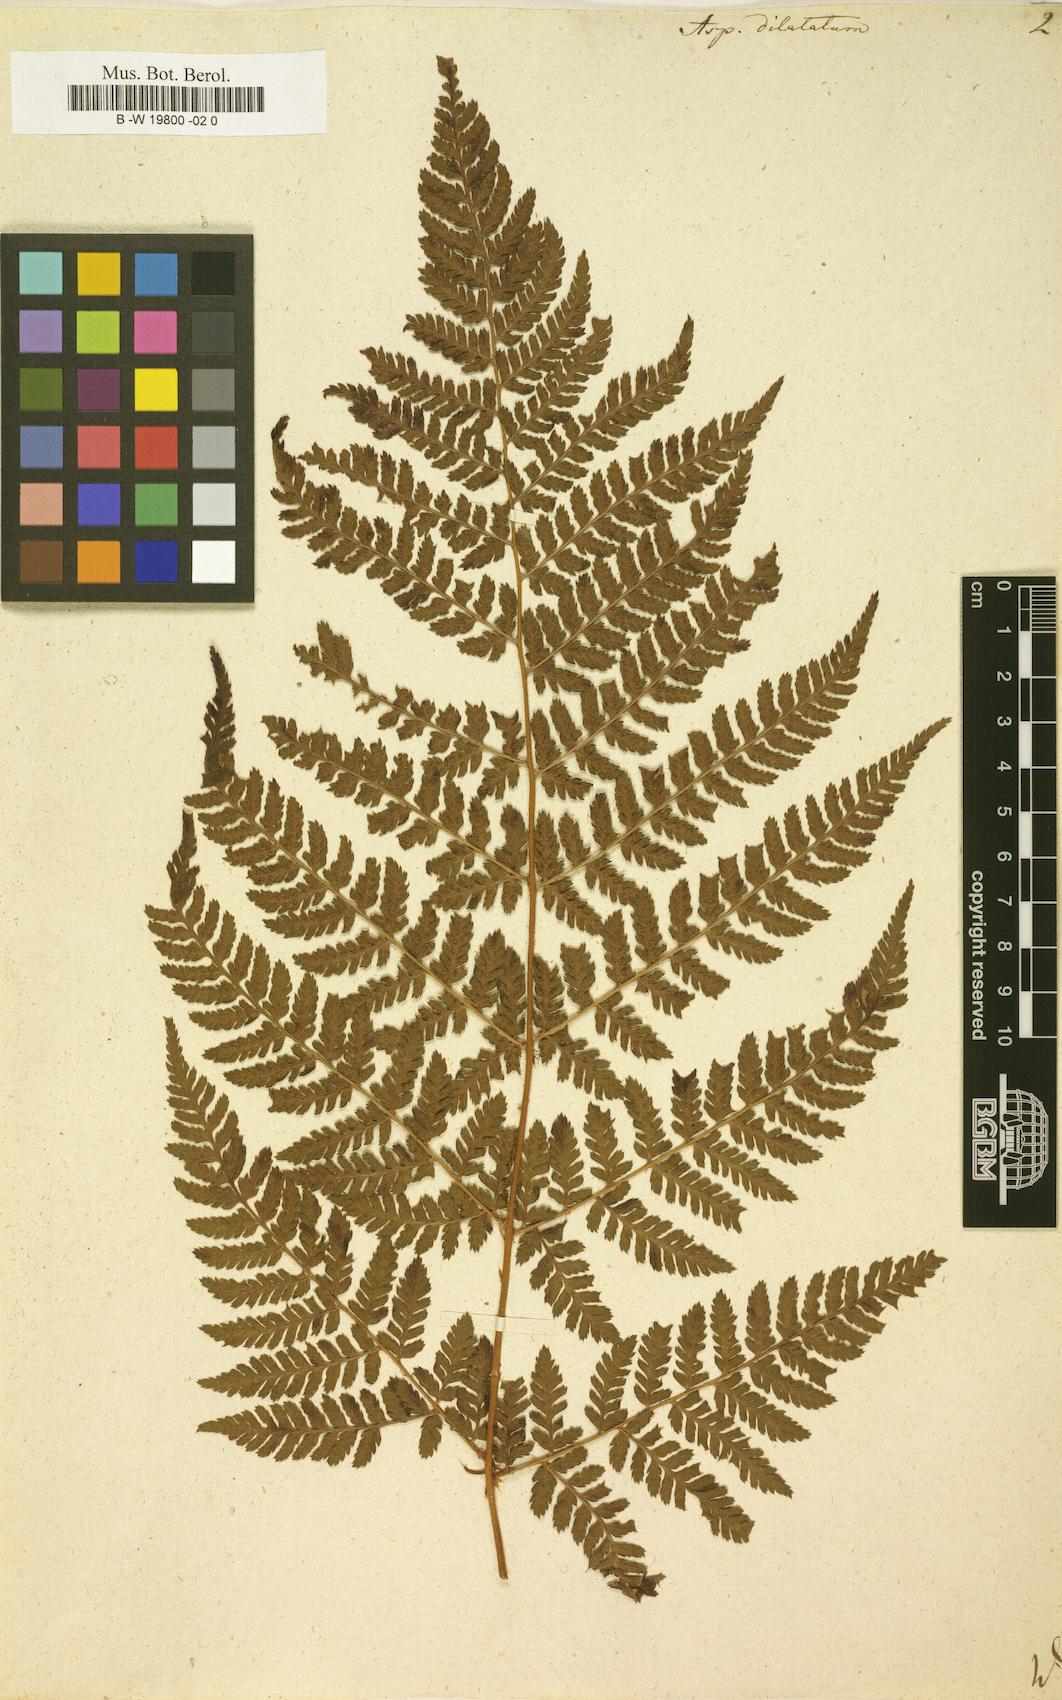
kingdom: Plantae
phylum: Tracheophyta
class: Polypodiopsida
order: Polypodiales
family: Dryopteridaceae
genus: Dryopteris
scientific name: Dryopteris dilatata
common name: Broad buckler-fern
